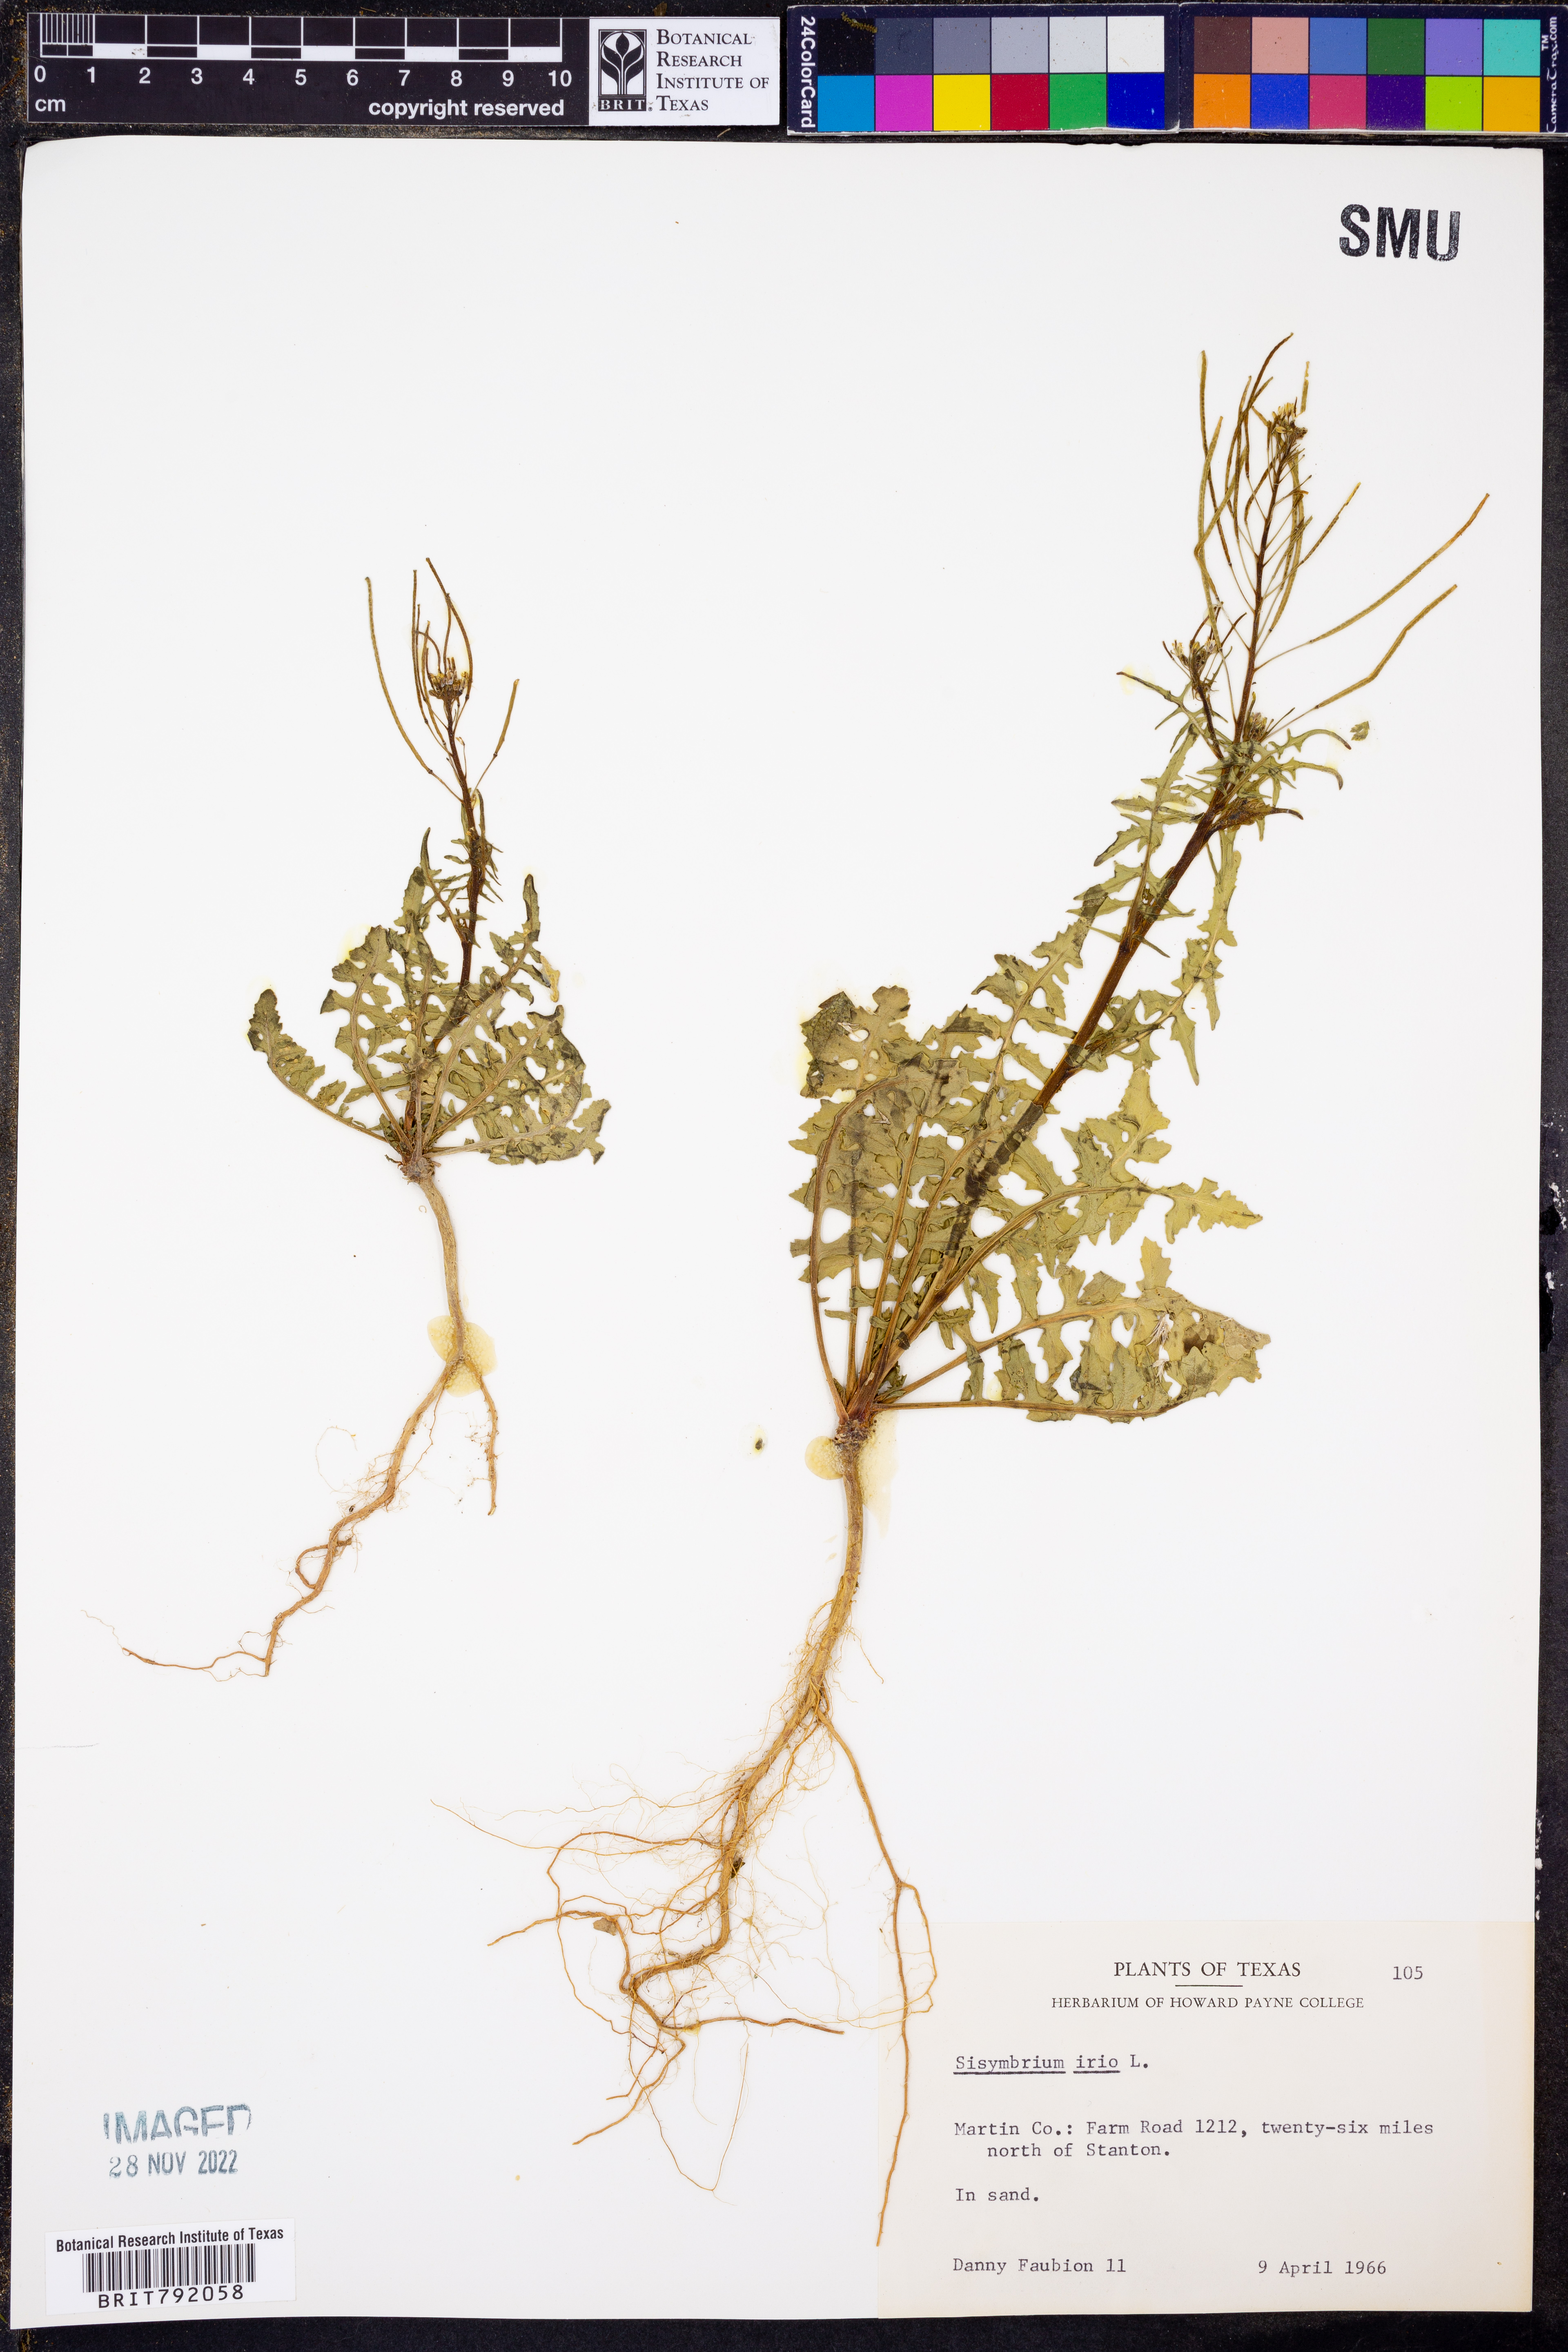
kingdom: Plantae
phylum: Tracheophyta
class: Magnoliopsida
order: Brassicales
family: Brassicaceae
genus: Sisymbrium
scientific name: Sisymbrium irio
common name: London rocket
